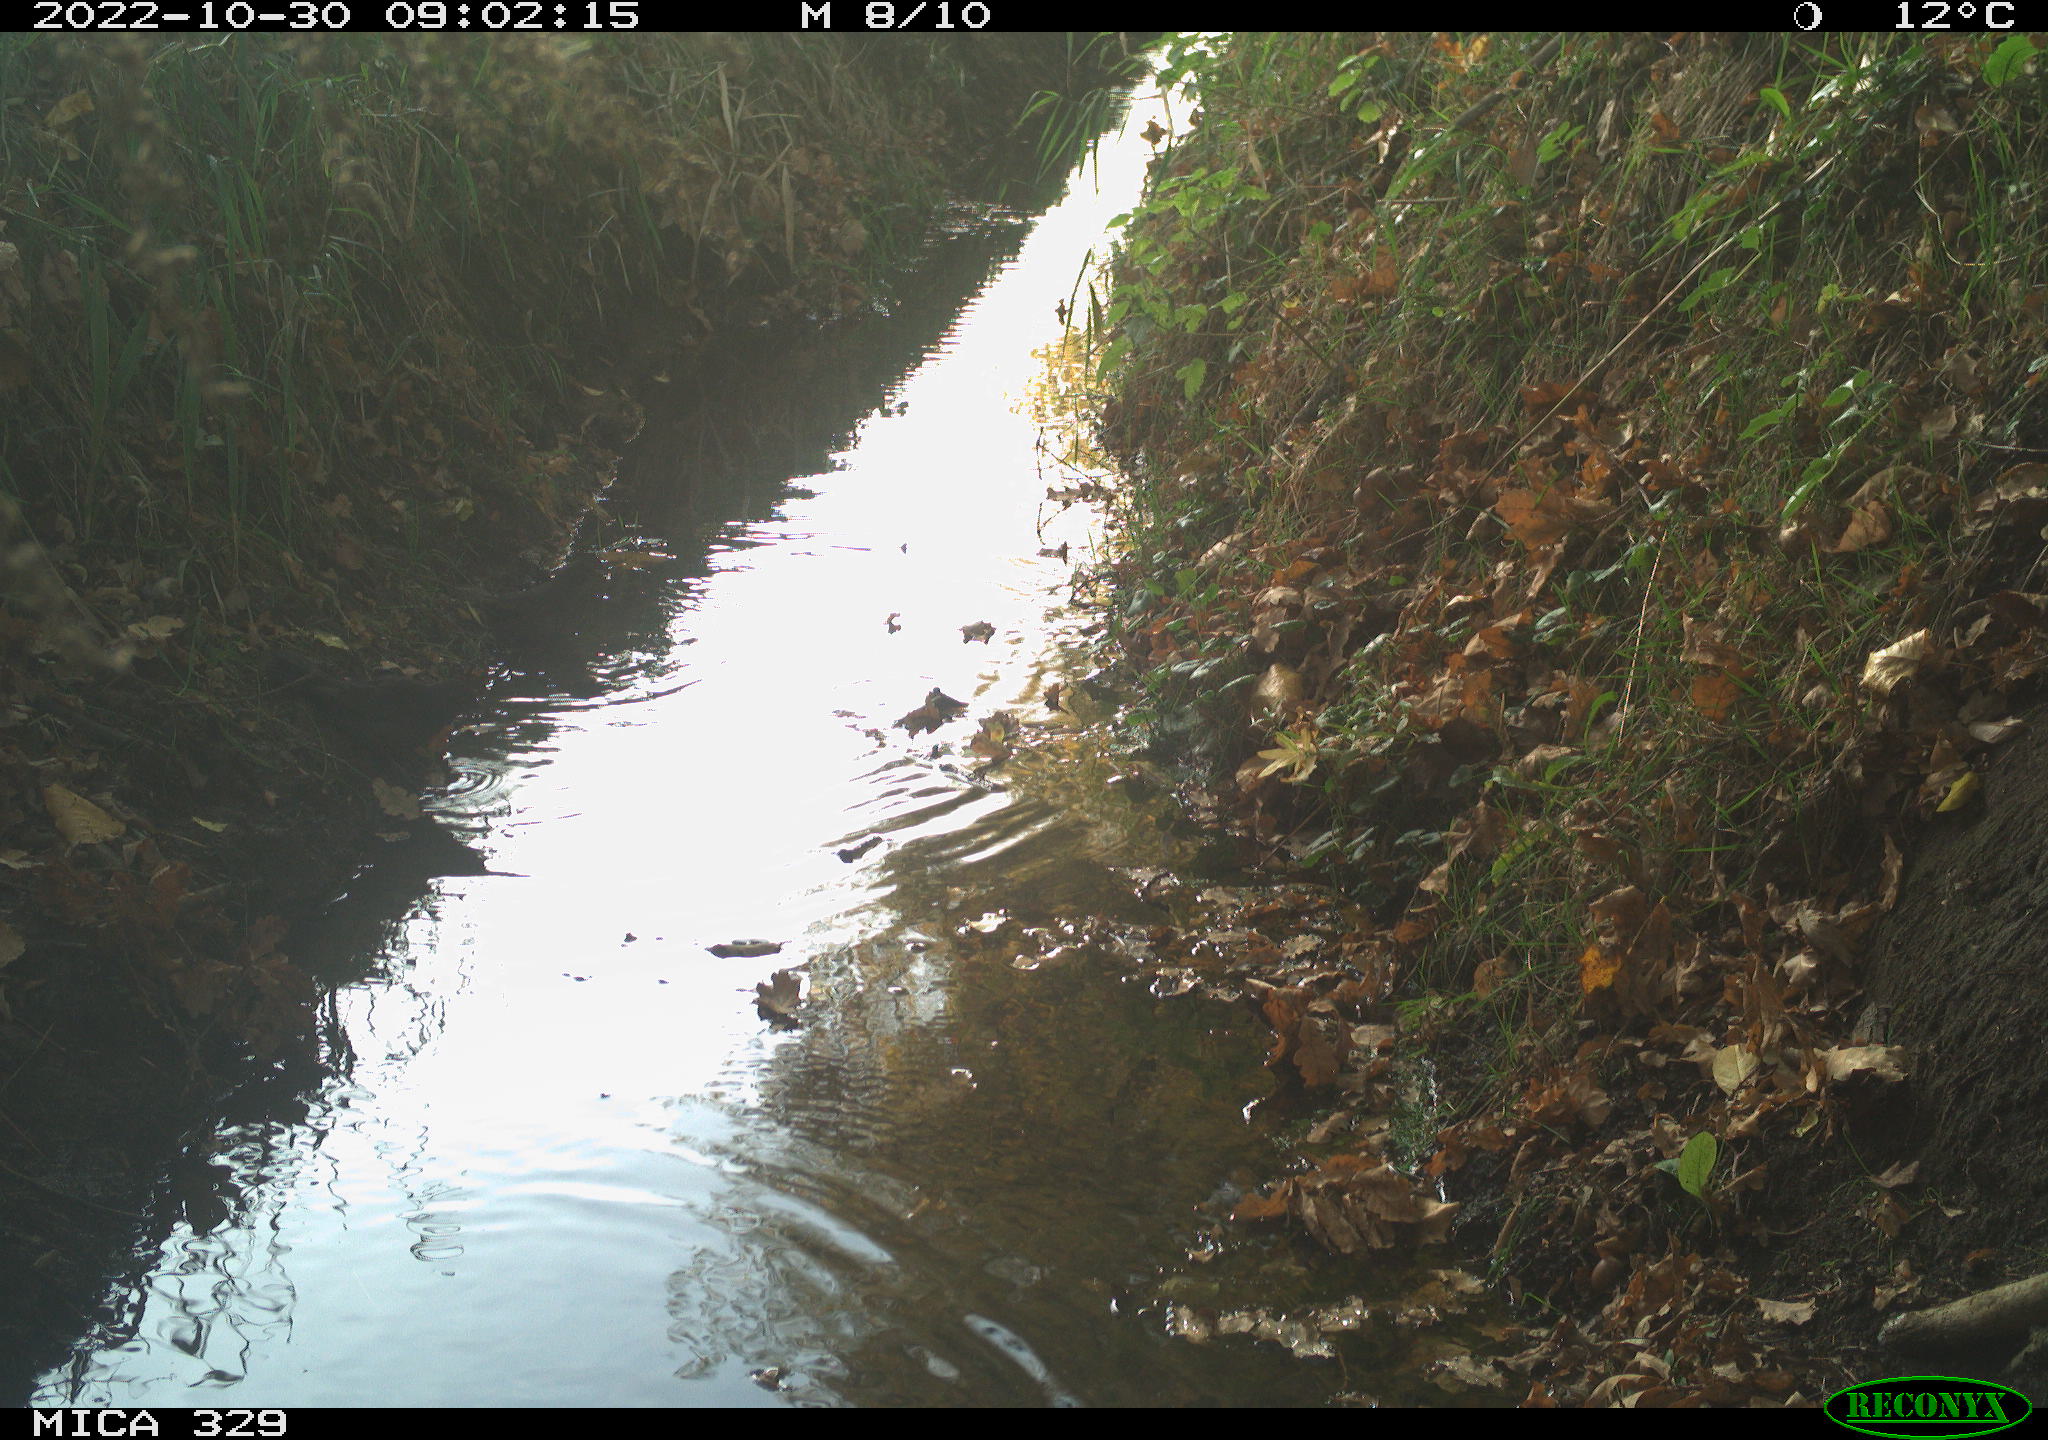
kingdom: Animalia
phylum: Chordata
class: Aves
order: Passeriformes
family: Turdidae
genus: Turdus
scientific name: Turdus merula
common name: Common blackbird
